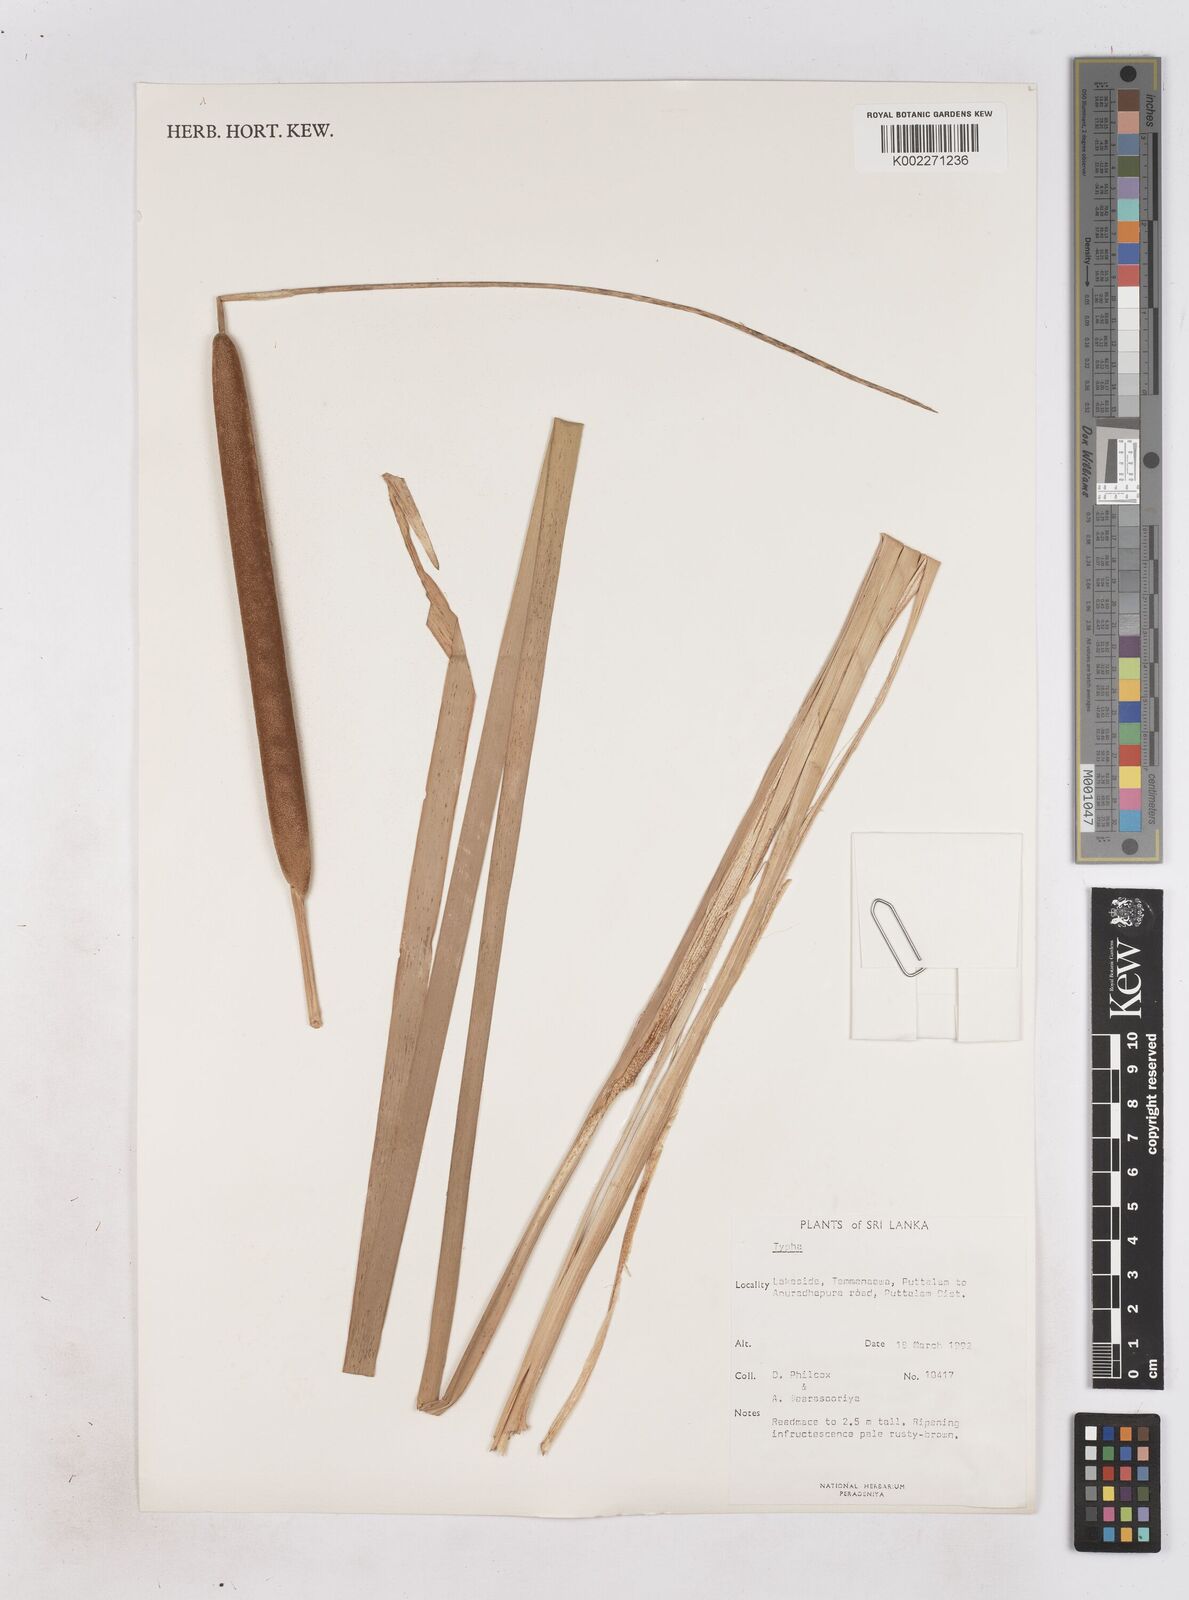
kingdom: Plantae
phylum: Tracheophyta
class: Liliopsida
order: Poales
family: Typhaceae
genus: Typha
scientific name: Typha
